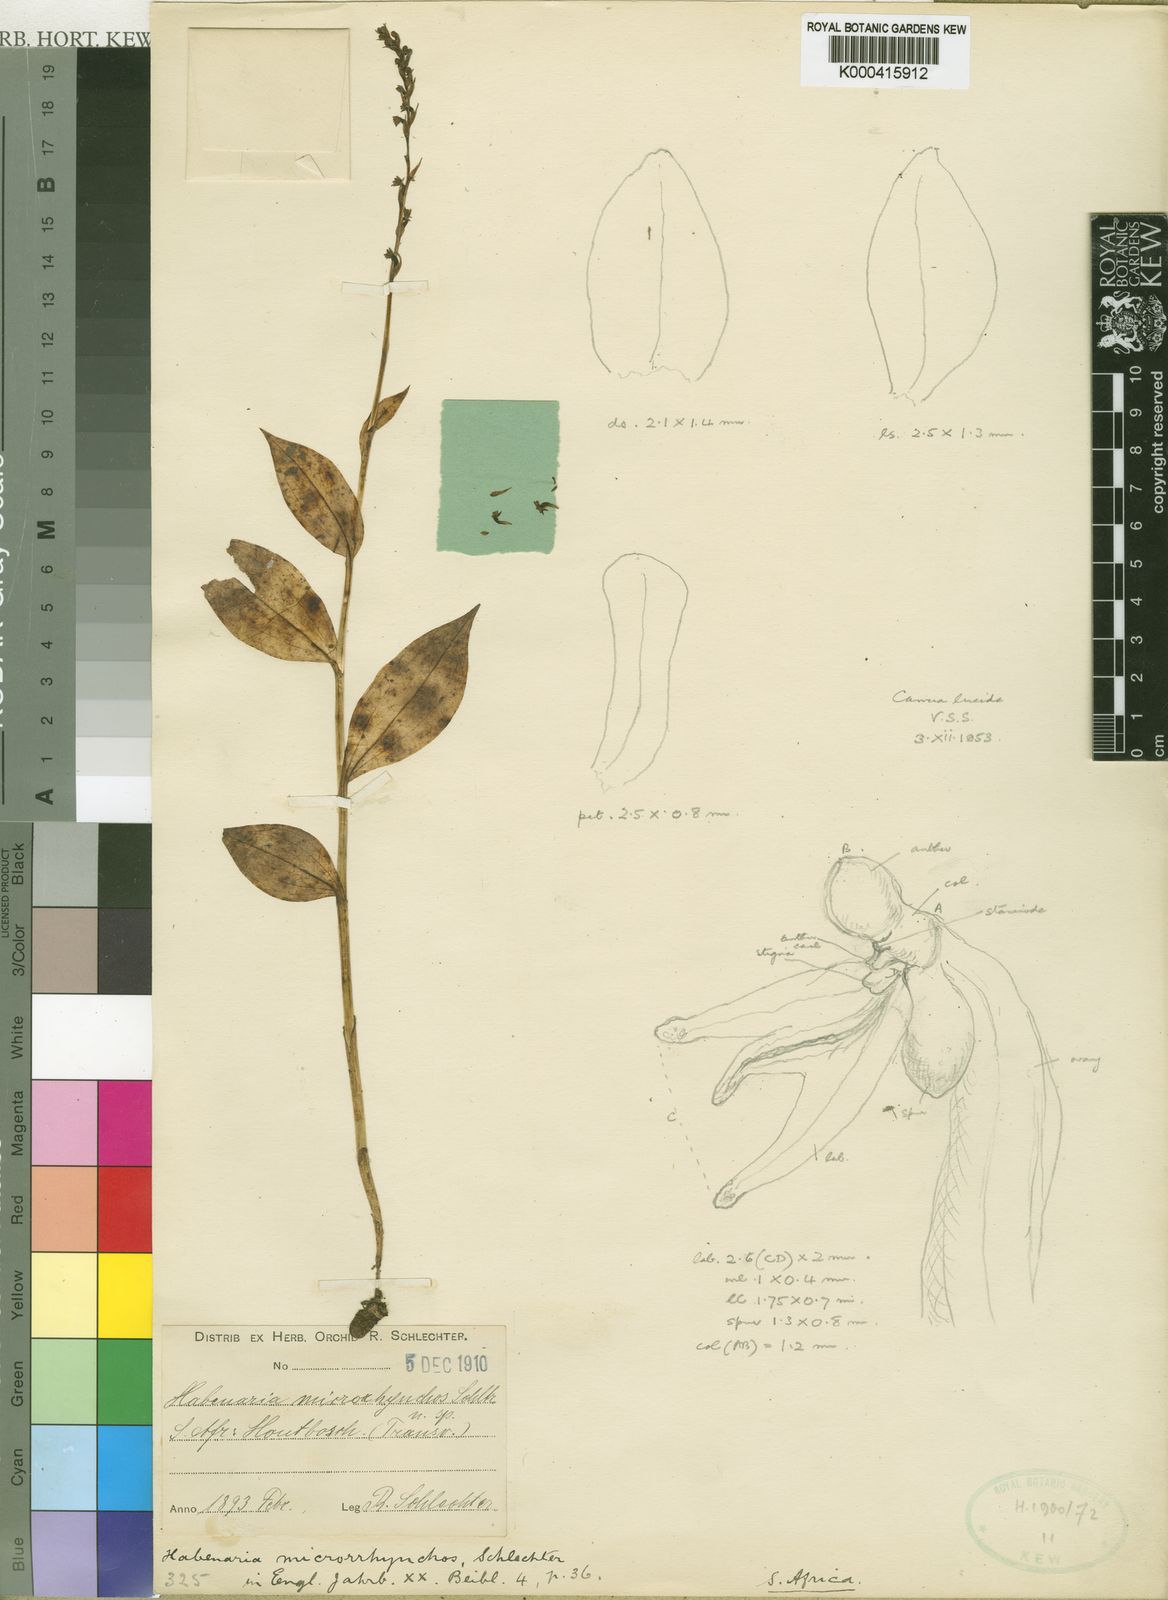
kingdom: Plantae
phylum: Tracheophyta
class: Liliopsida
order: Asparagales
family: Orchidaceae
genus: Habenaria
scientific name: Habenaria petitiana
